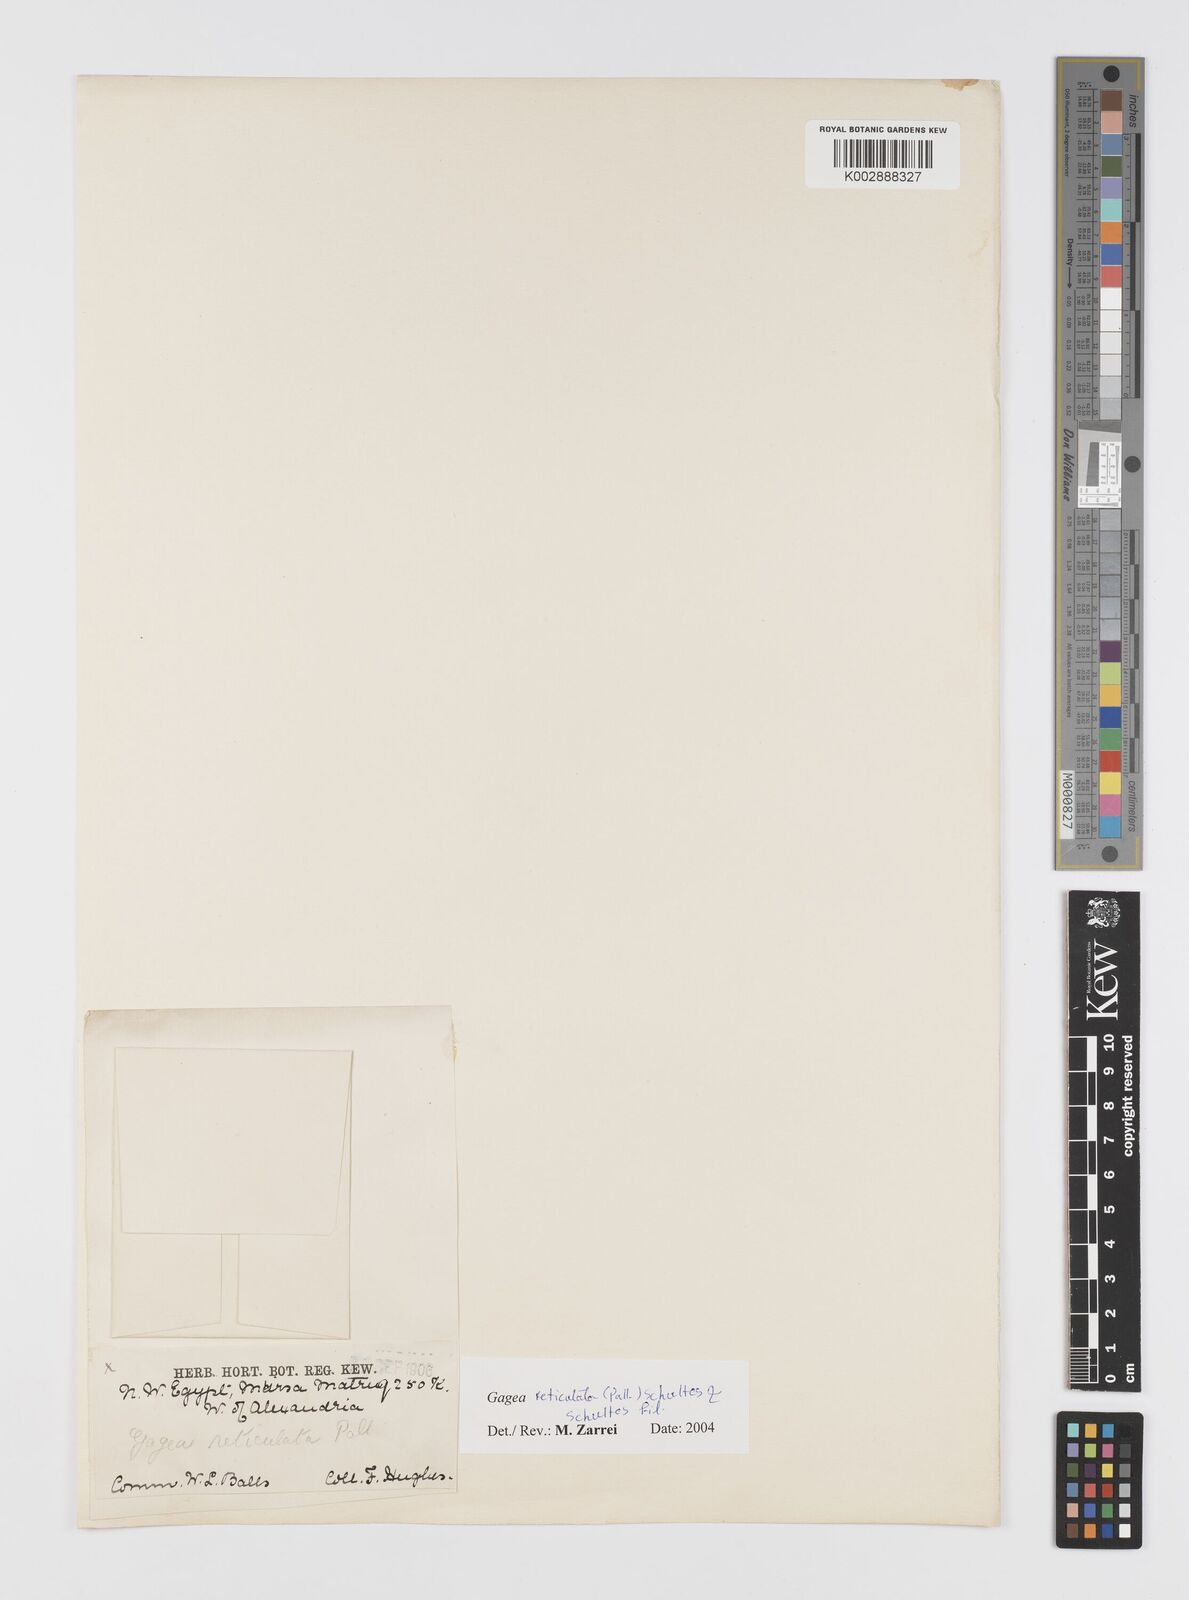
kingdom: Plantae
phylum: Tracheophyta
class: Liliopsida
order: Liliales
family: Liliaceae
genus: Gagea
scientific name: Gagea reticulata
